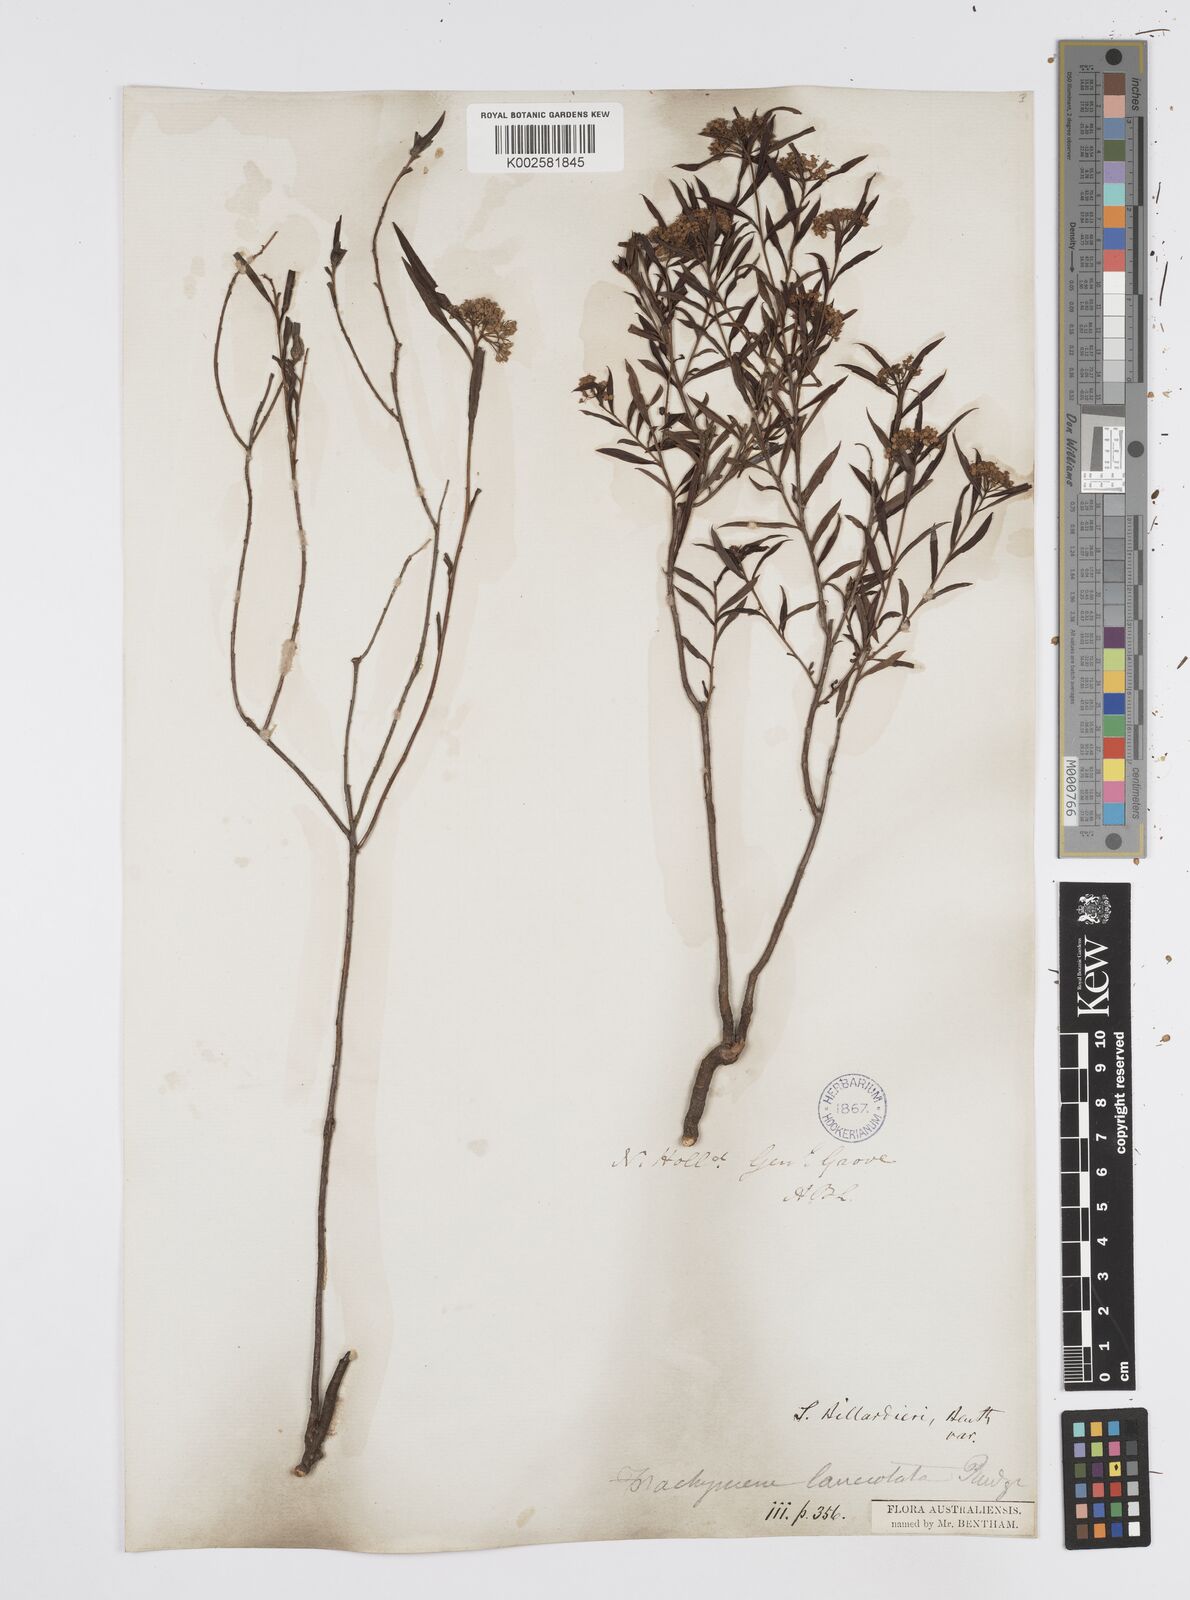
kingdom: Plantae
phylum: Tracheophyta
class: Magnoliopsida
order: Apiales
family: Apiaceae
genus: Platysace
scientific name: Platysace lanceolata
